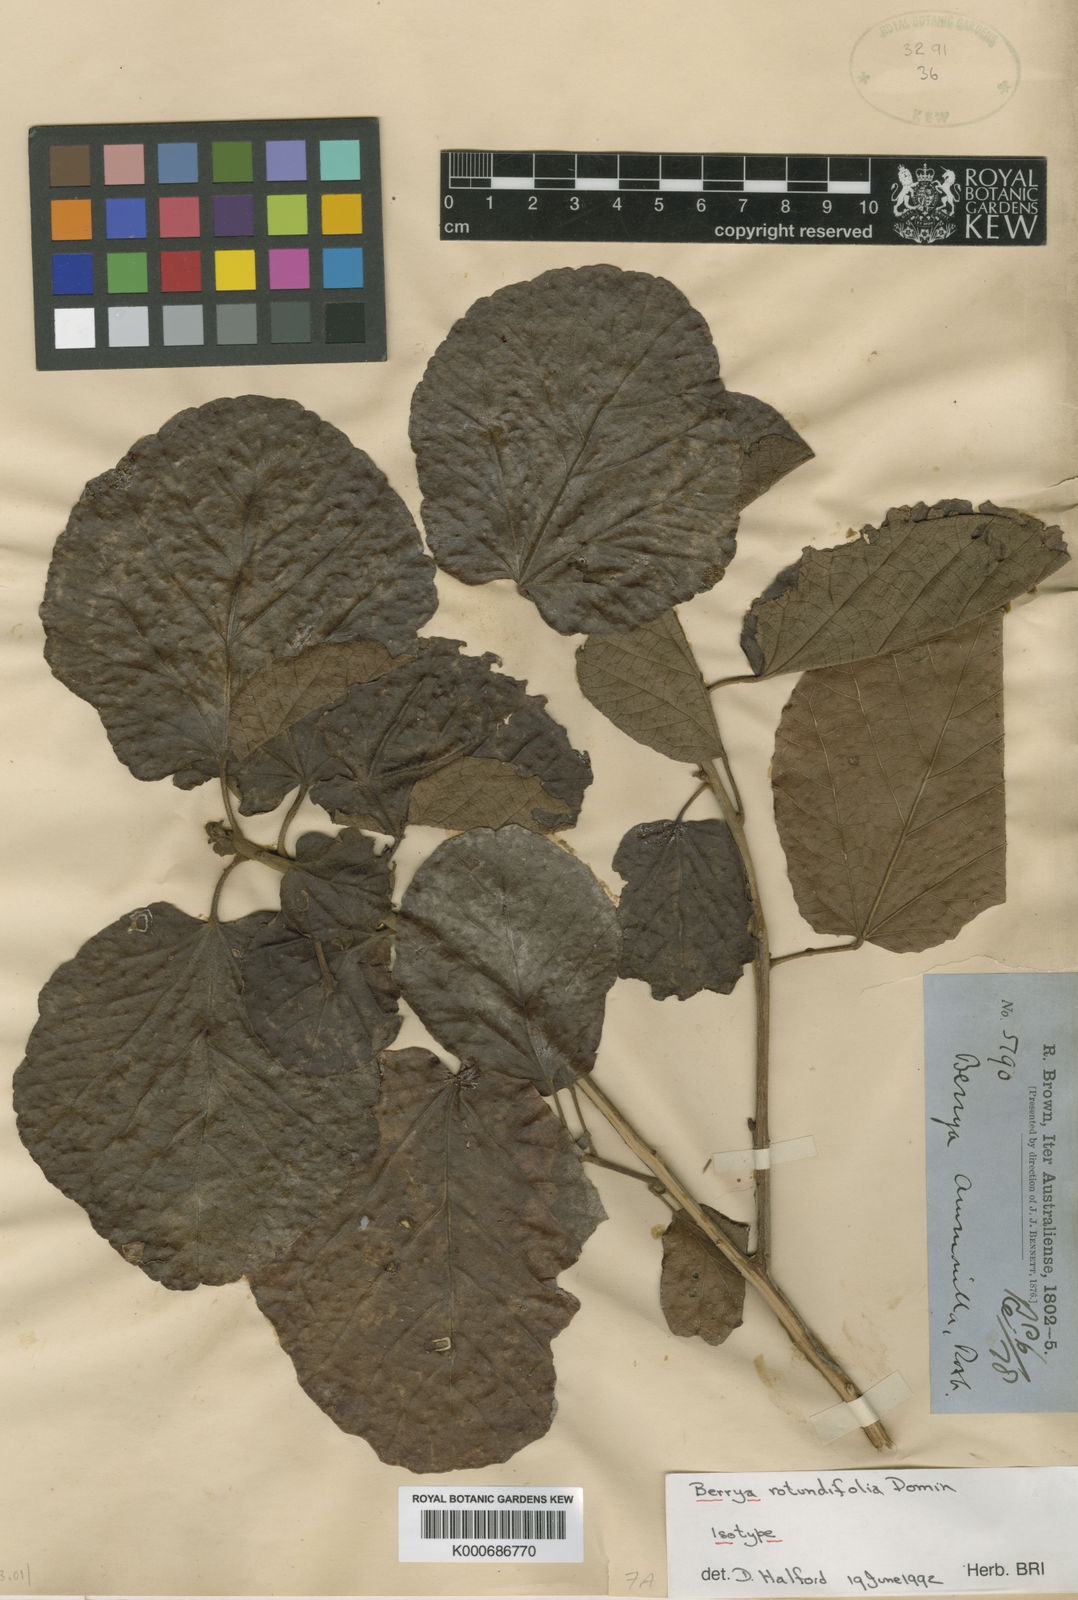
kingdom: Plantae
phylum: Tracheophyta
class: Magnoliopsida
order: Malvales
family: Malvaceae
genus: Berrya
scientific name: Berrya rotundifolia
